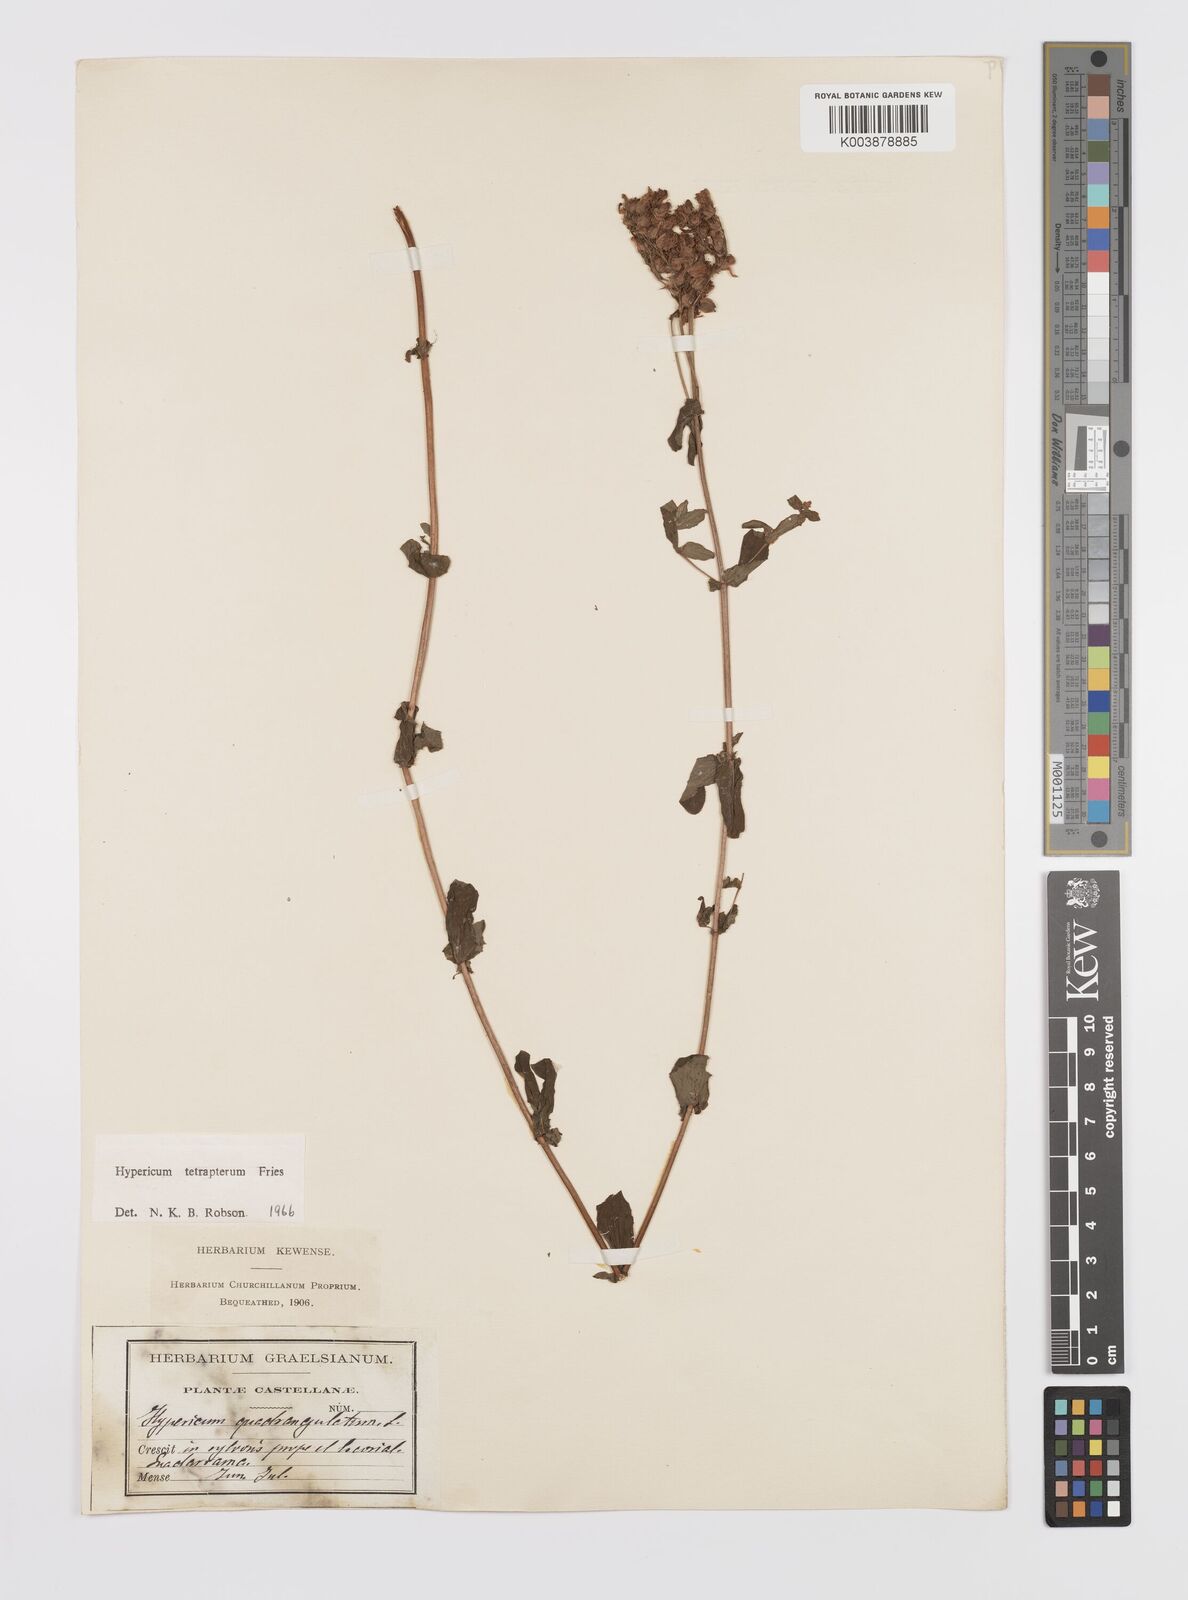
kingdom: Plantae
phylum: Tracheophyta
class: Magnoliopsida
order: Malpighiales
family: Hypericaceae
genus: Hypericum
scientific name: Hypericum tetrapterum
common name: Square-stalked st. john's-wort
